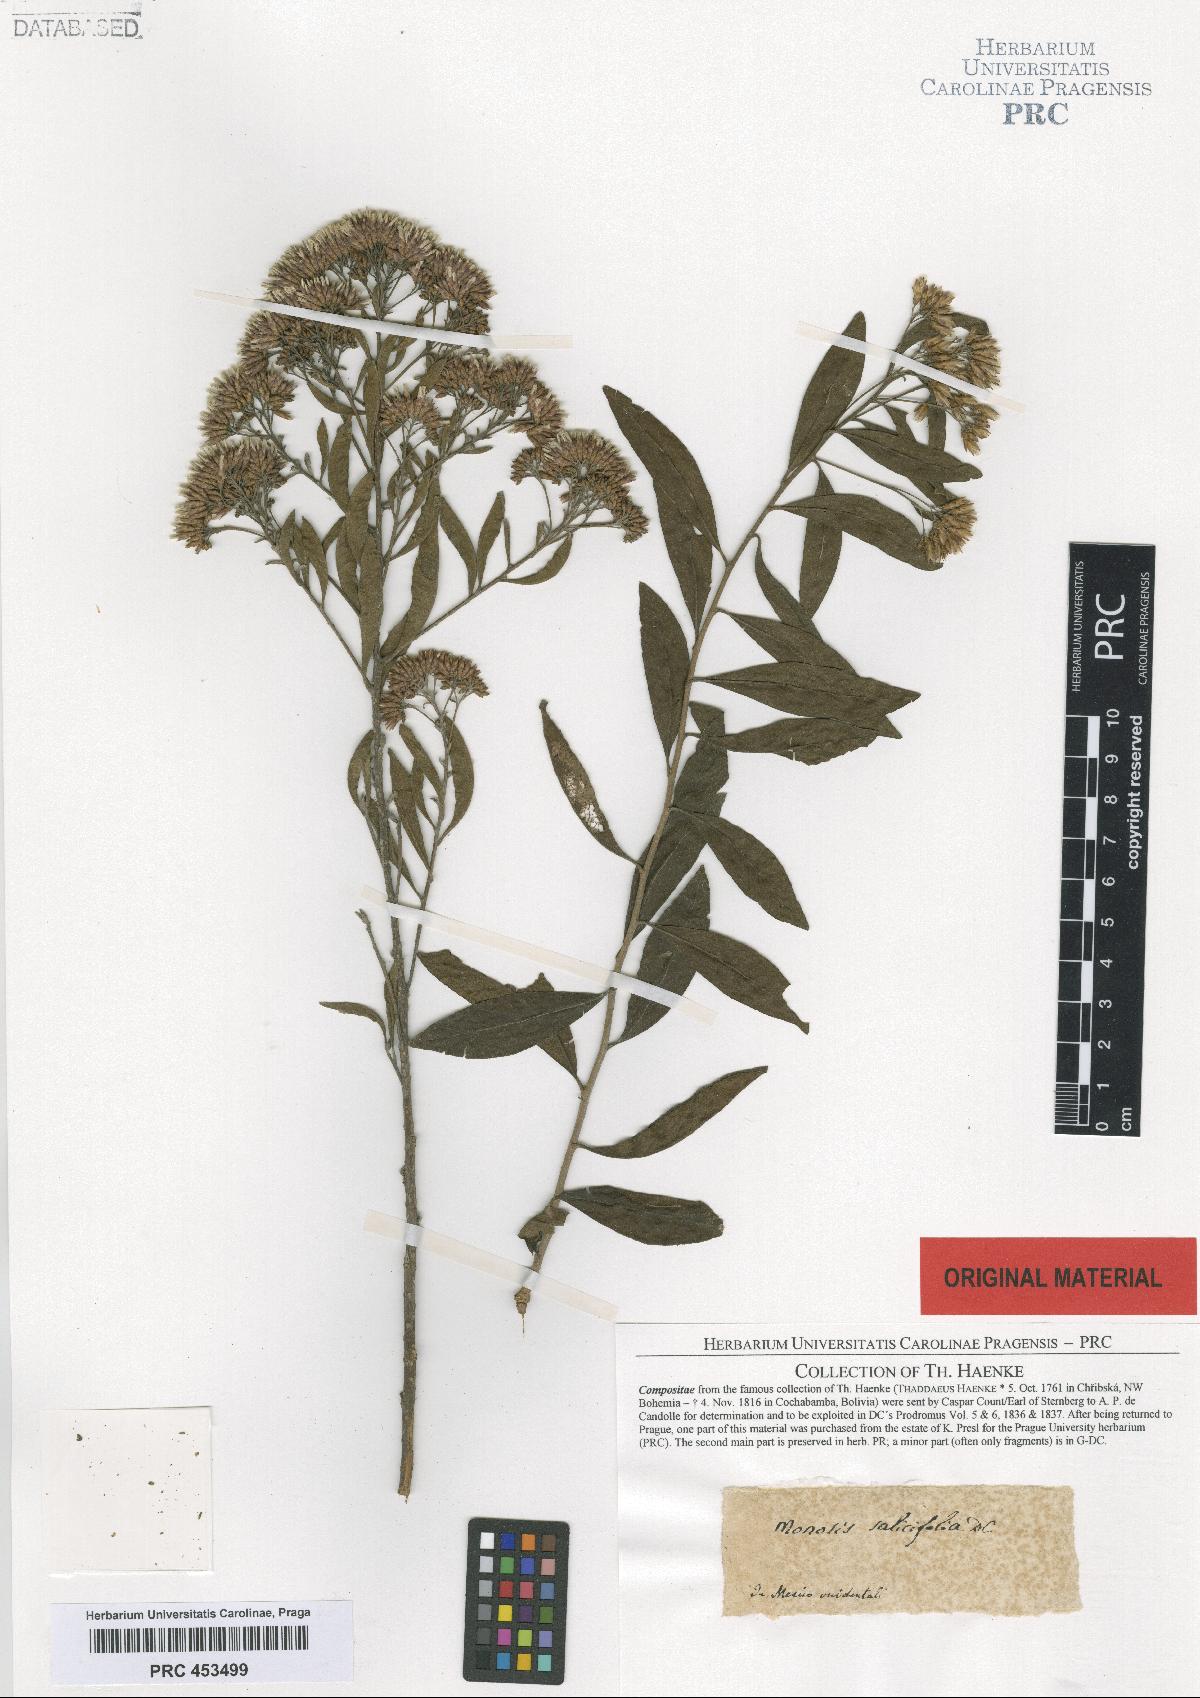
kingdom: Plantae
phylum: Tracheophyta
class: Magnoliopsida
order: Asterales
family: Asteraceae
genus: Eremosis
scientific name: Eremosis corymbosa
